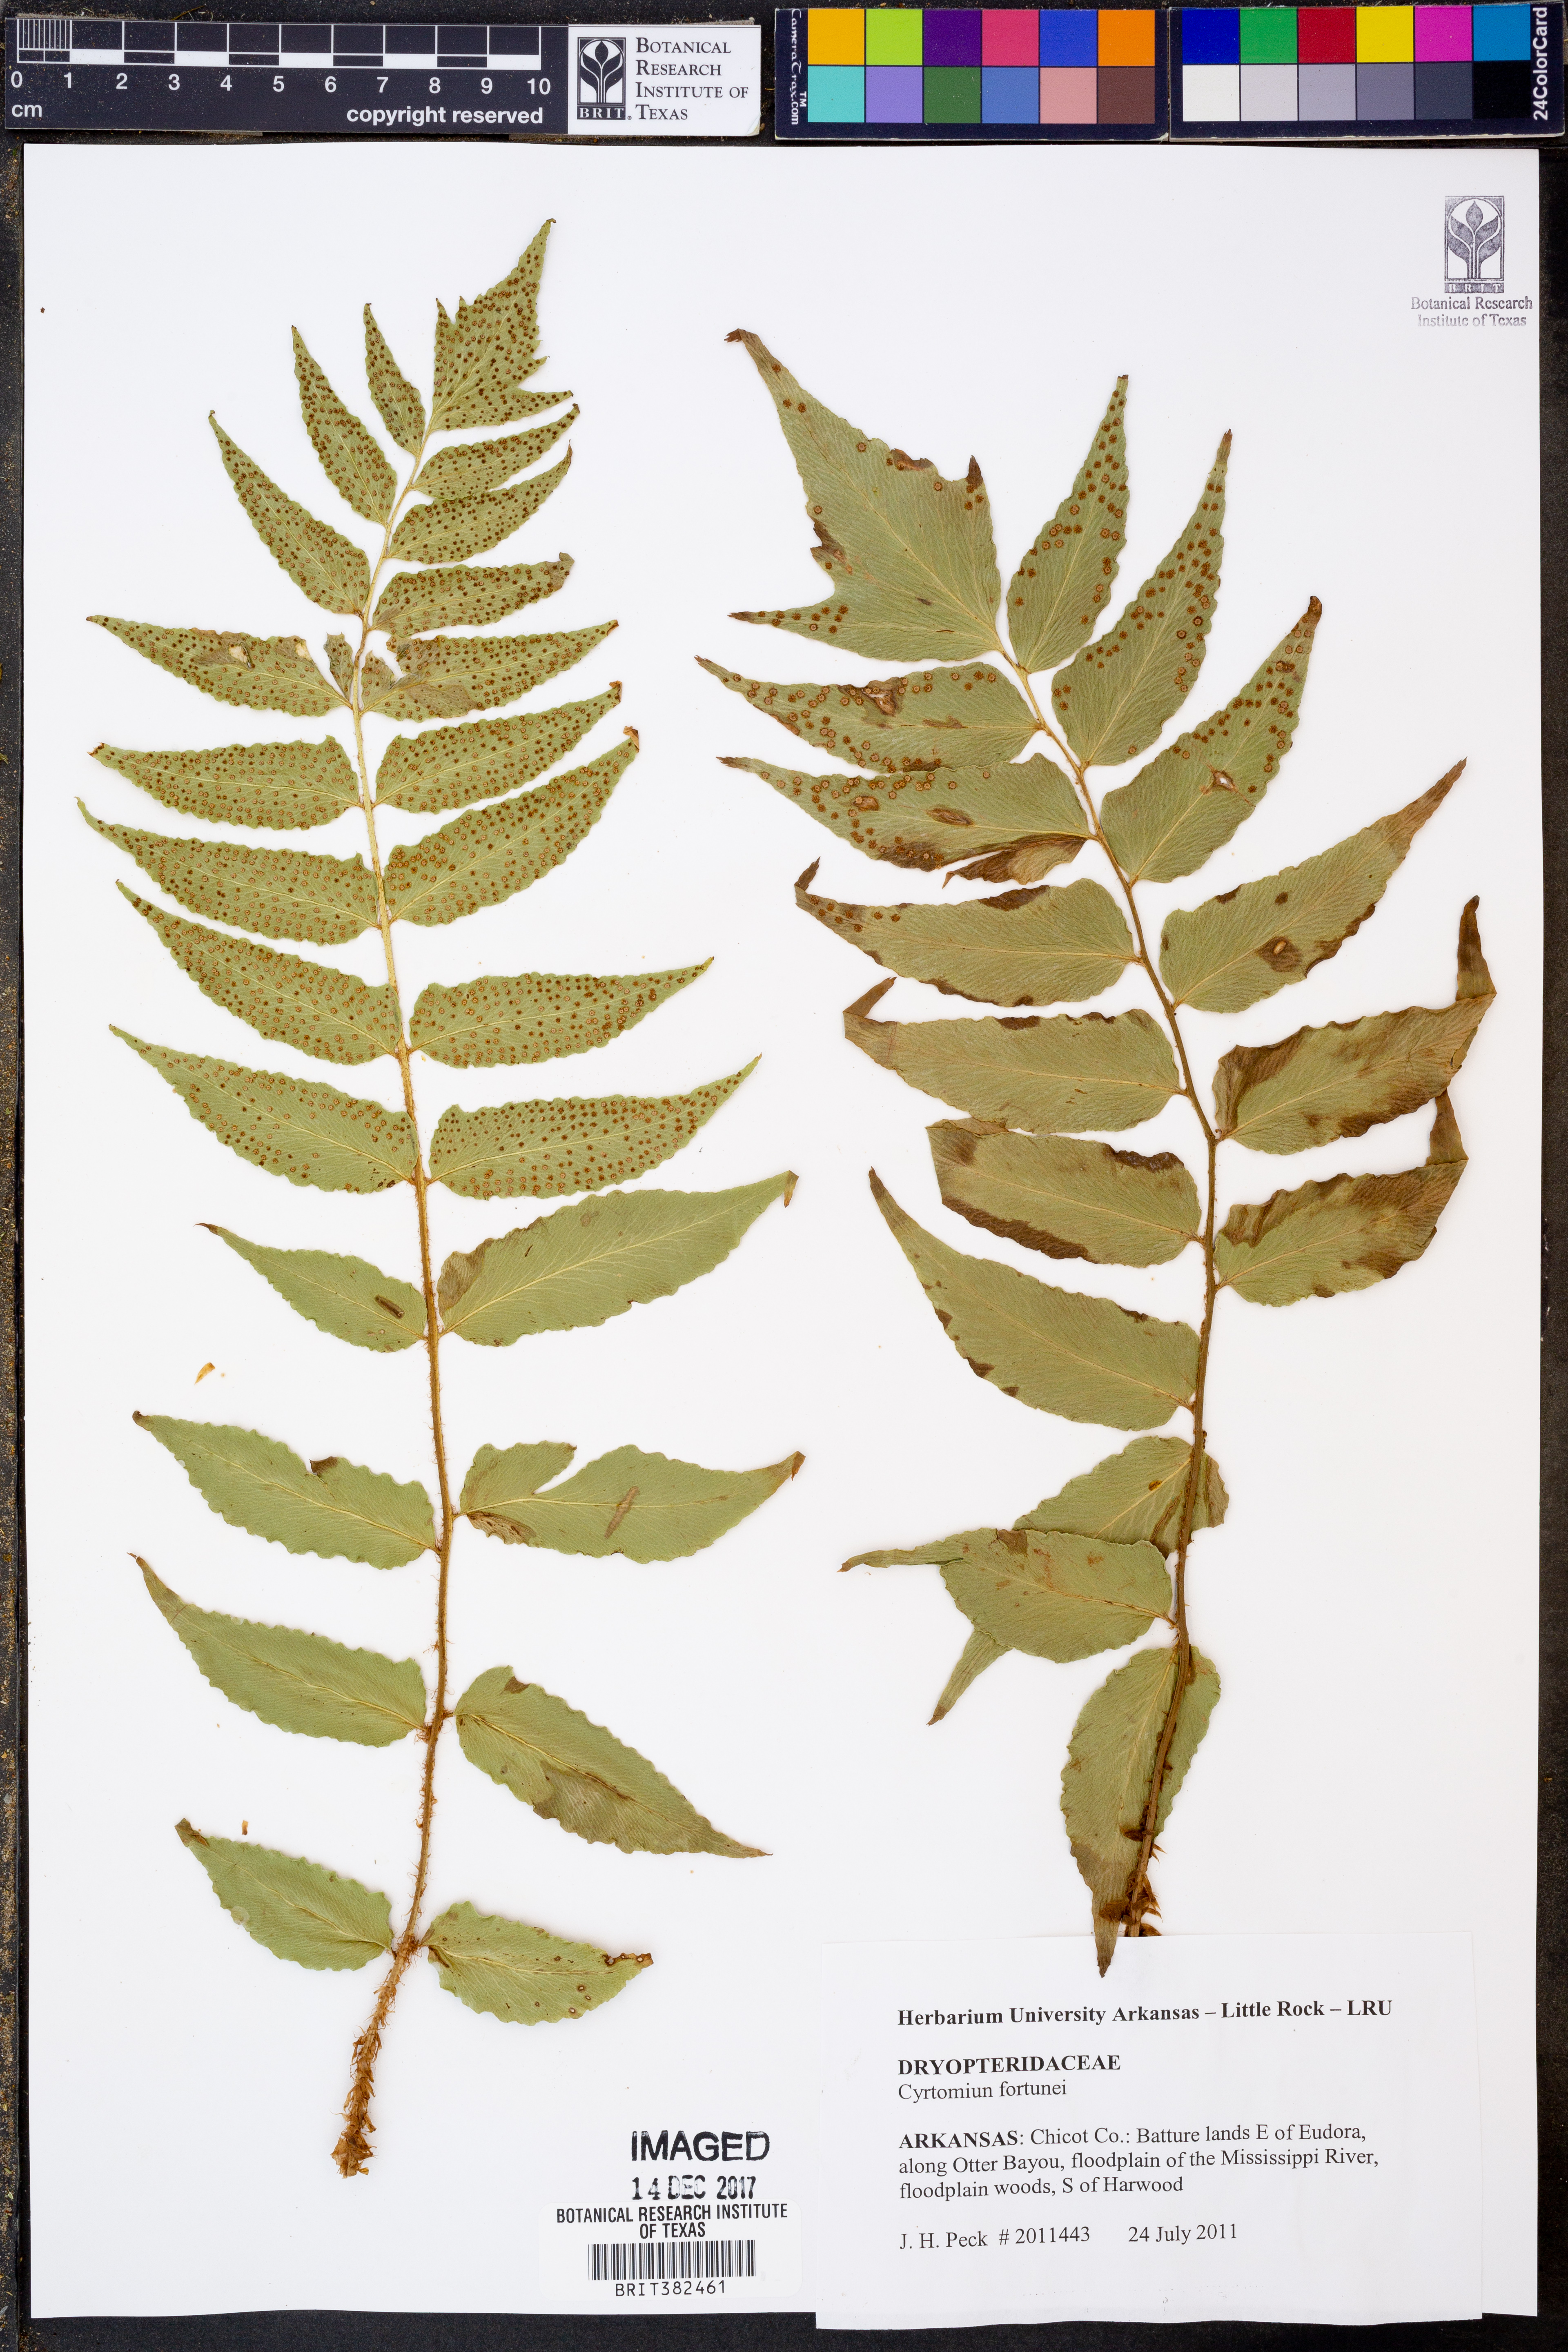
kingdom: Plantae
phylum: Tracheophyta
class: Polypodiopsida
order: Polypodiales
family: Dryopteridaceae
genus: Cyrtomium
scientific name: Cyrtomium fortunei
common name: Asian netvein hollyfern
